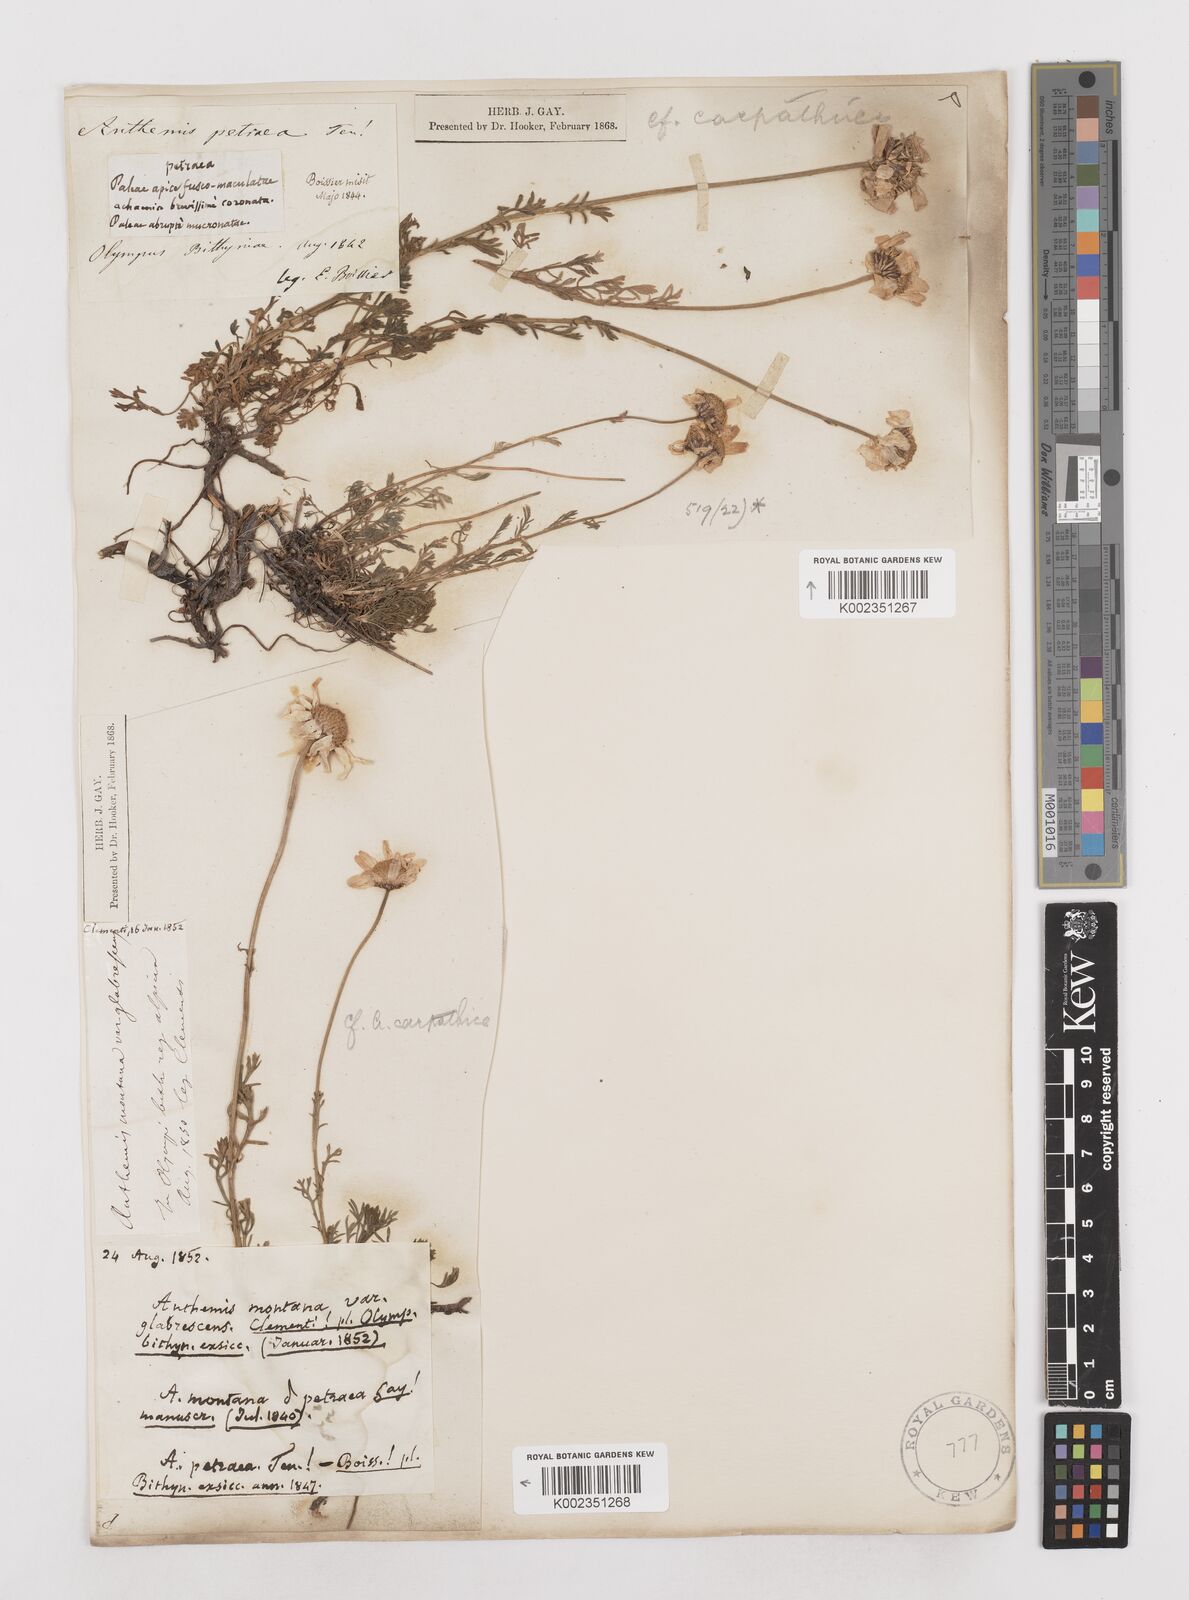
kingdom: Plantae
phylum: Tracheophyta
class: Magnoliopsida
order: Asterales
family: Asteraceae
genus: Anthemis
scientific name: Anthemis cretica
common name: Mountain dog-daisy
